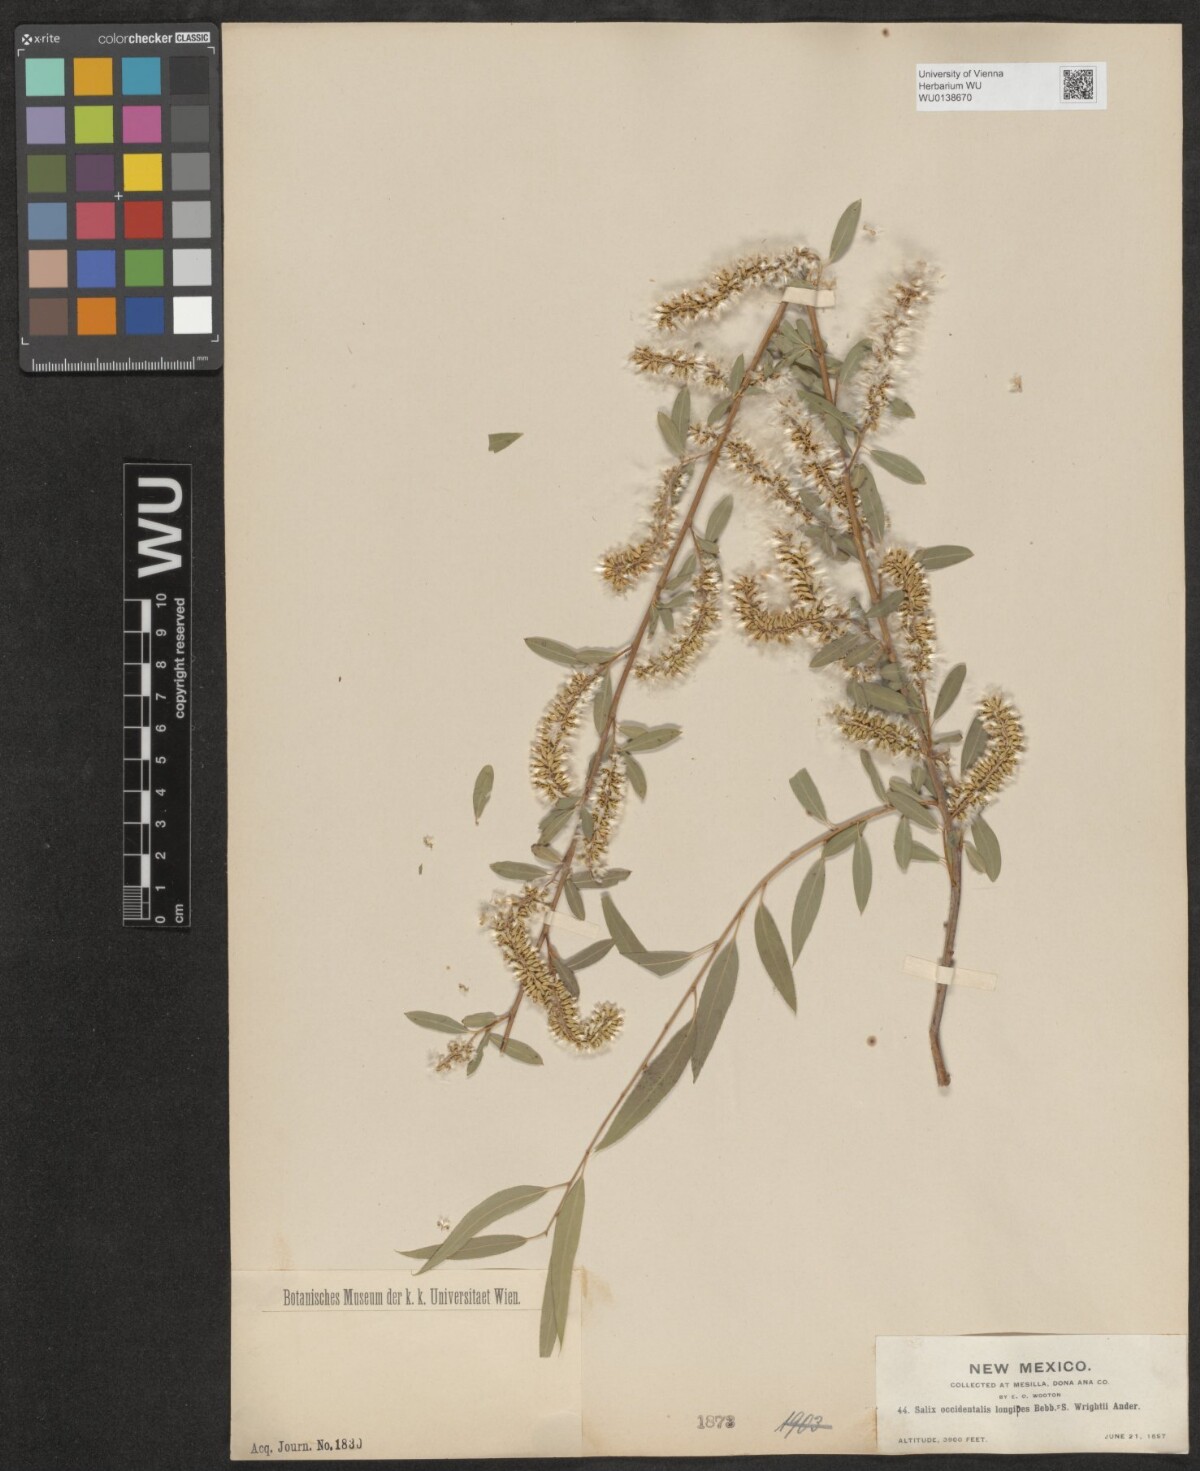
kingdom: Plantae
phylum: Tracheophyta
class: Magnoliopsida
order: Malpighiales
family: Salicaceae
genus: Salix
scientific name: Salix humilis
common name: Prairie willow
